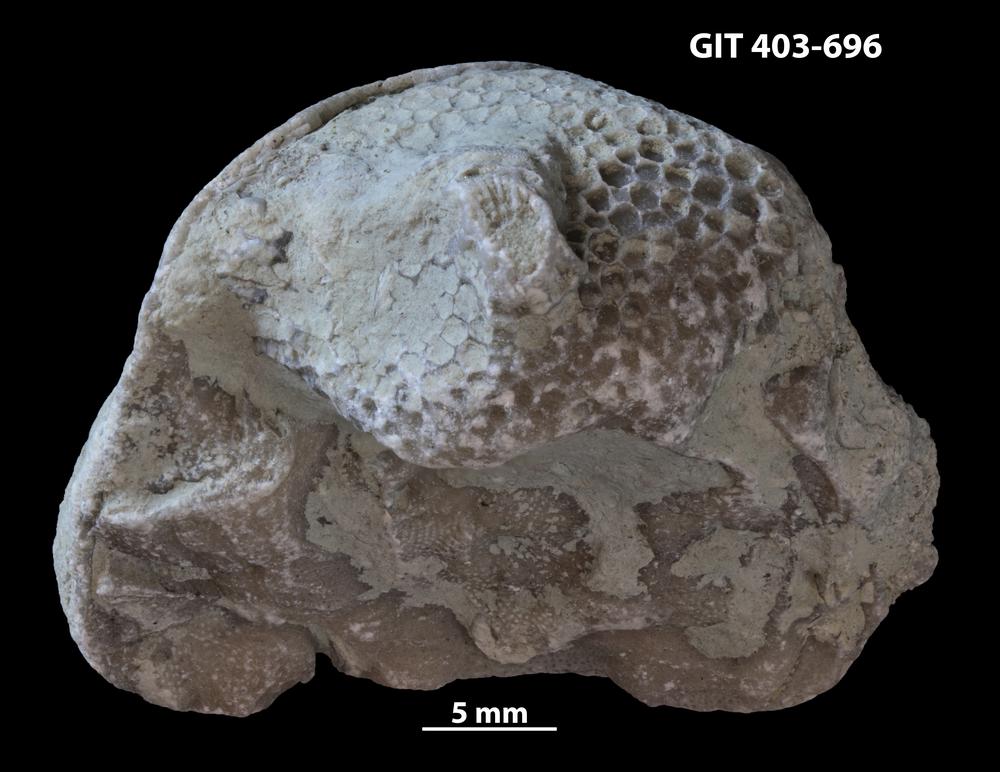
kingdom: Animalia
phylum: Cnidaria
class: Anthozoa
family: Favositidae
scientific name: Favositidae
